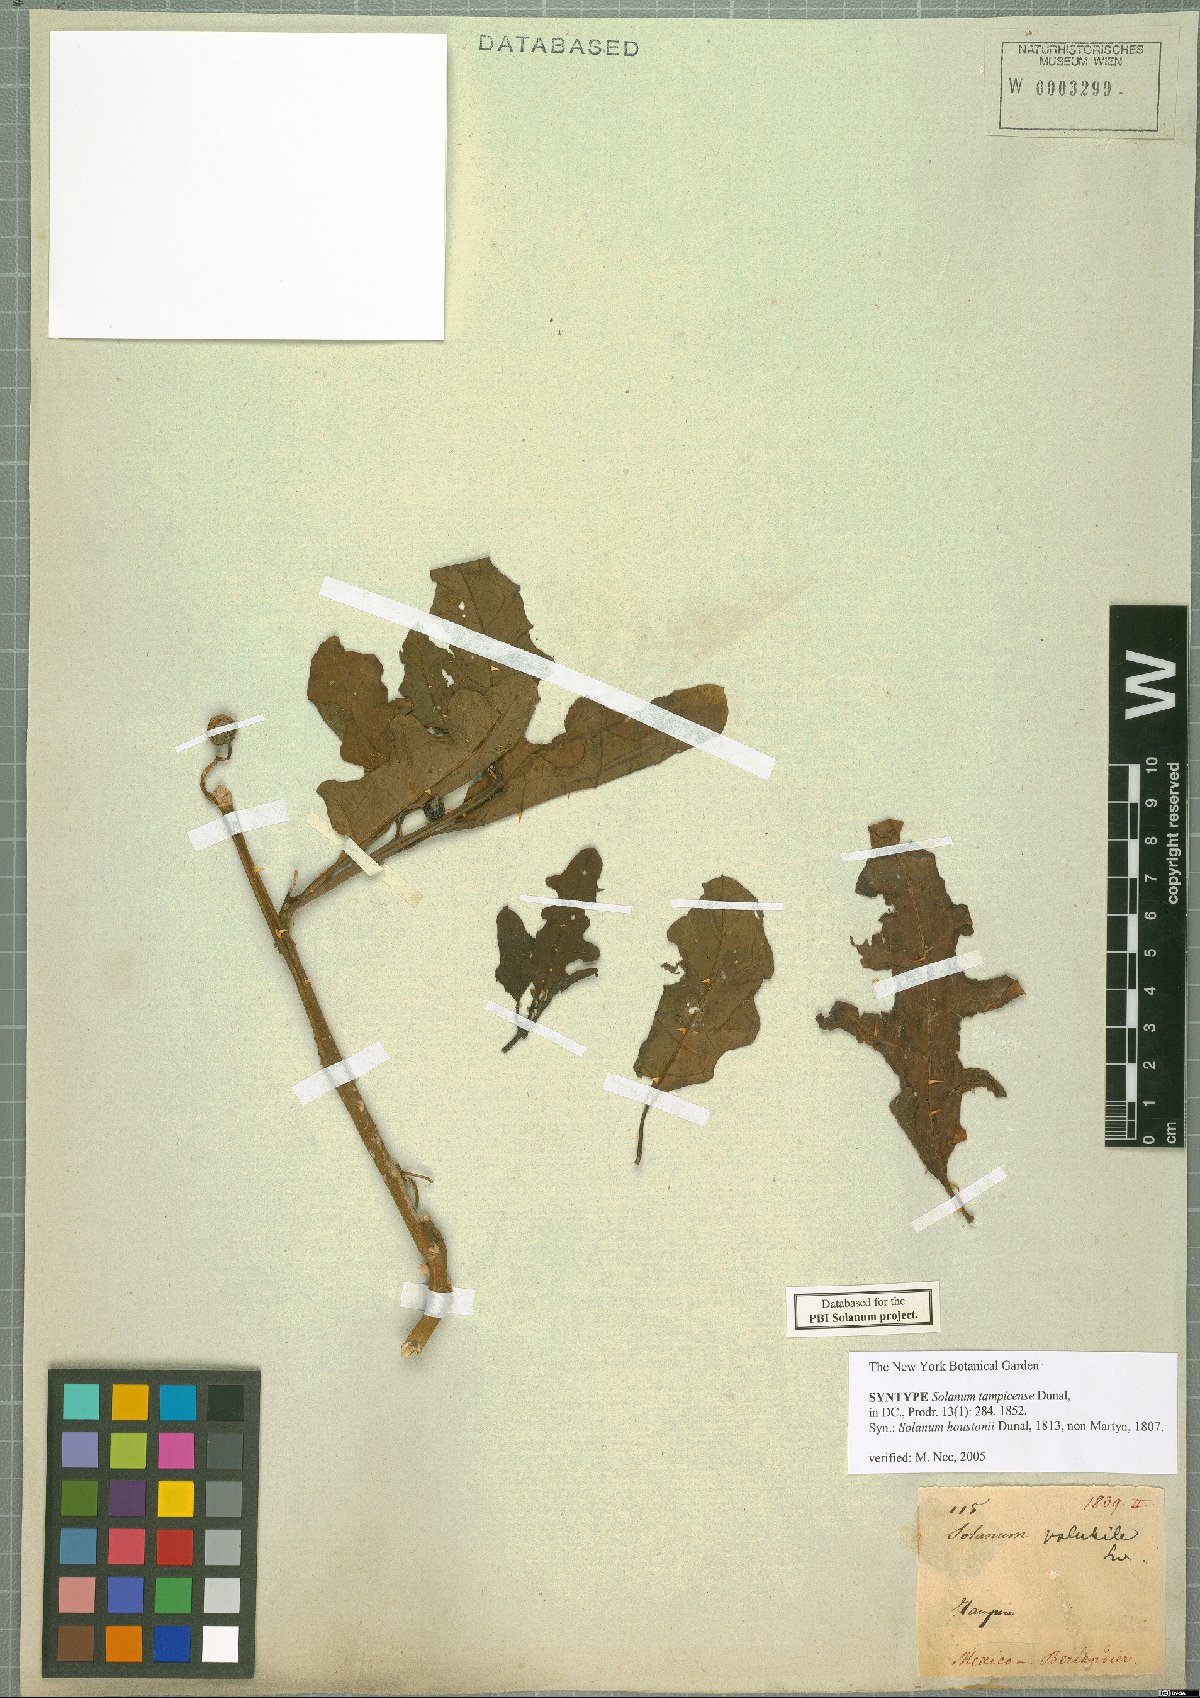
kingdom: Plantae
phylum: Tracheophyta
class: Magnoliopsida
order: Solanales
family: Solanaceae
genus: Solanum
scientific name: Solanum tampicense
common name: Scrambling nightshade
